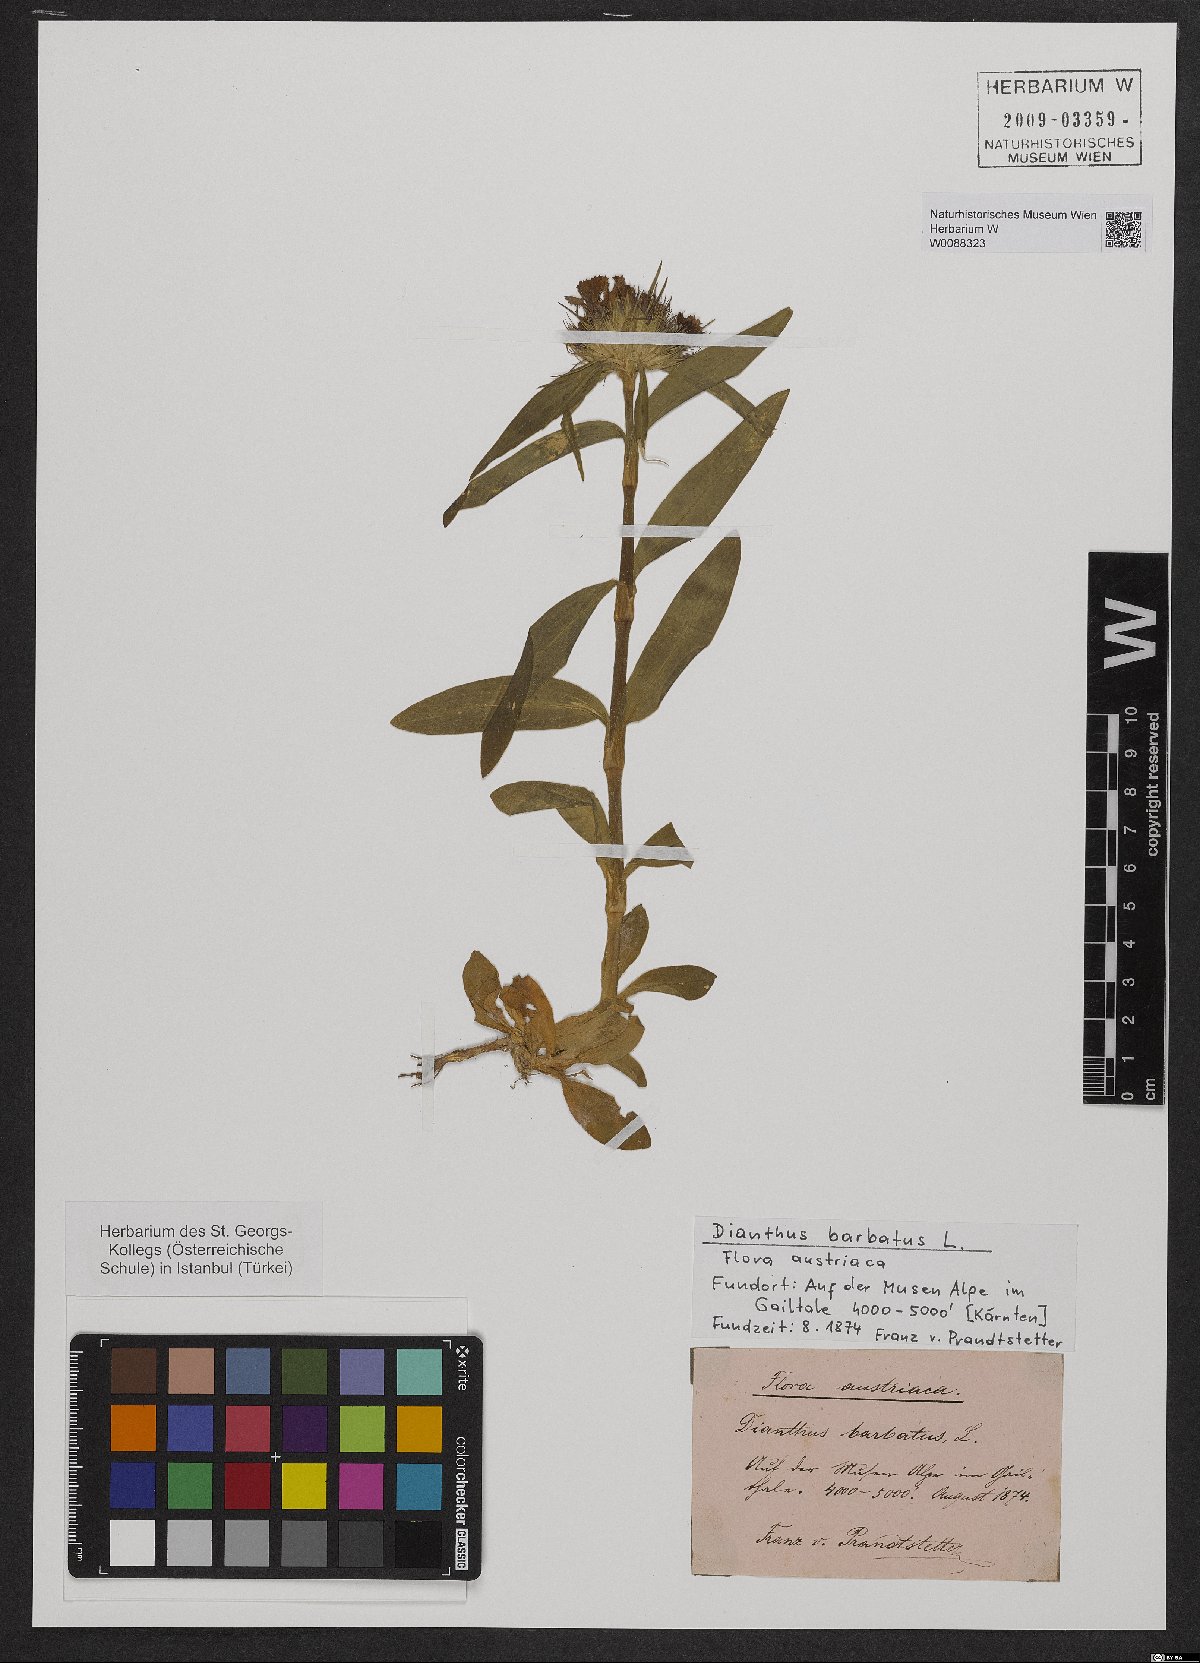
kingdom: Plantae
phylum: Tracheophyta
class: Magnoliopsida
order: Caryophyllales
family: Caryophyllaceae
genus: Dianthus
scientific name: Dianthus barbatus
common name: Sweet-william
